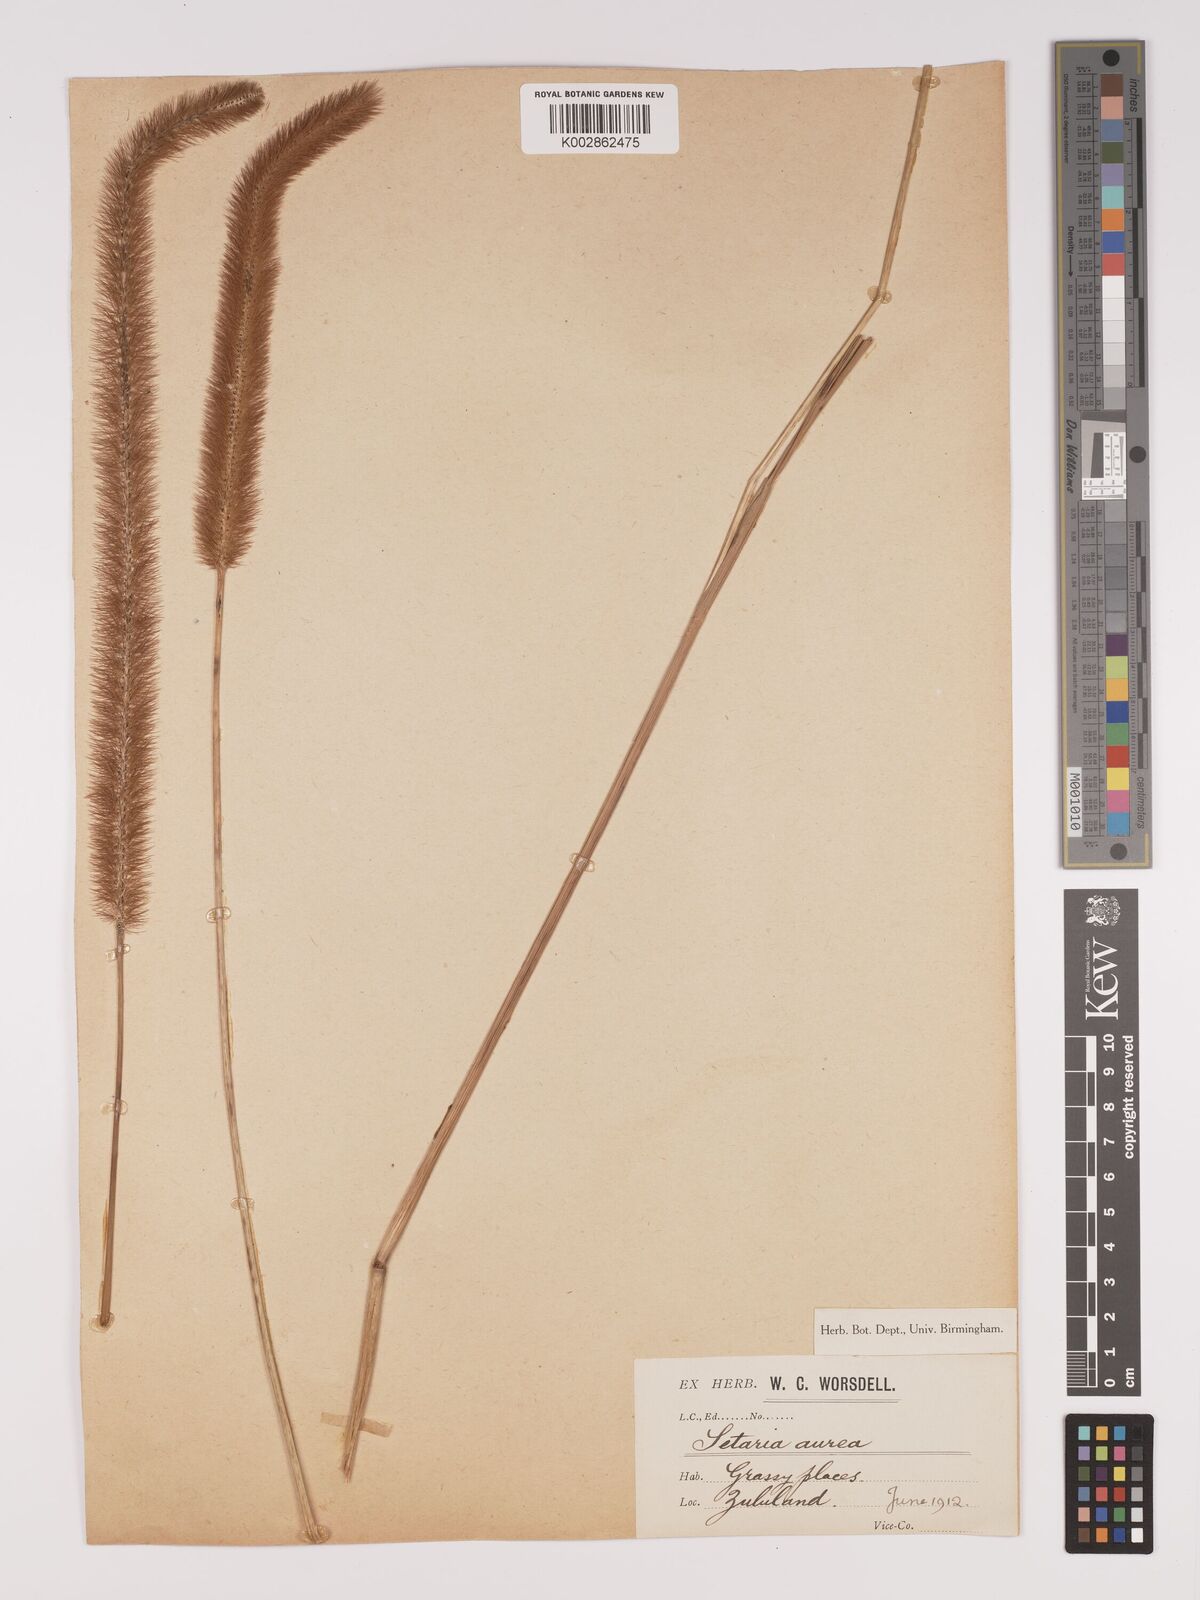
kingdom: Plantae
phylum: Tracheophyta
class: Liliopsida
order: Poales
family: Poaceae
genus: Setaria
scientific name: Setaria sphacelata
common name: African bristlegrass
